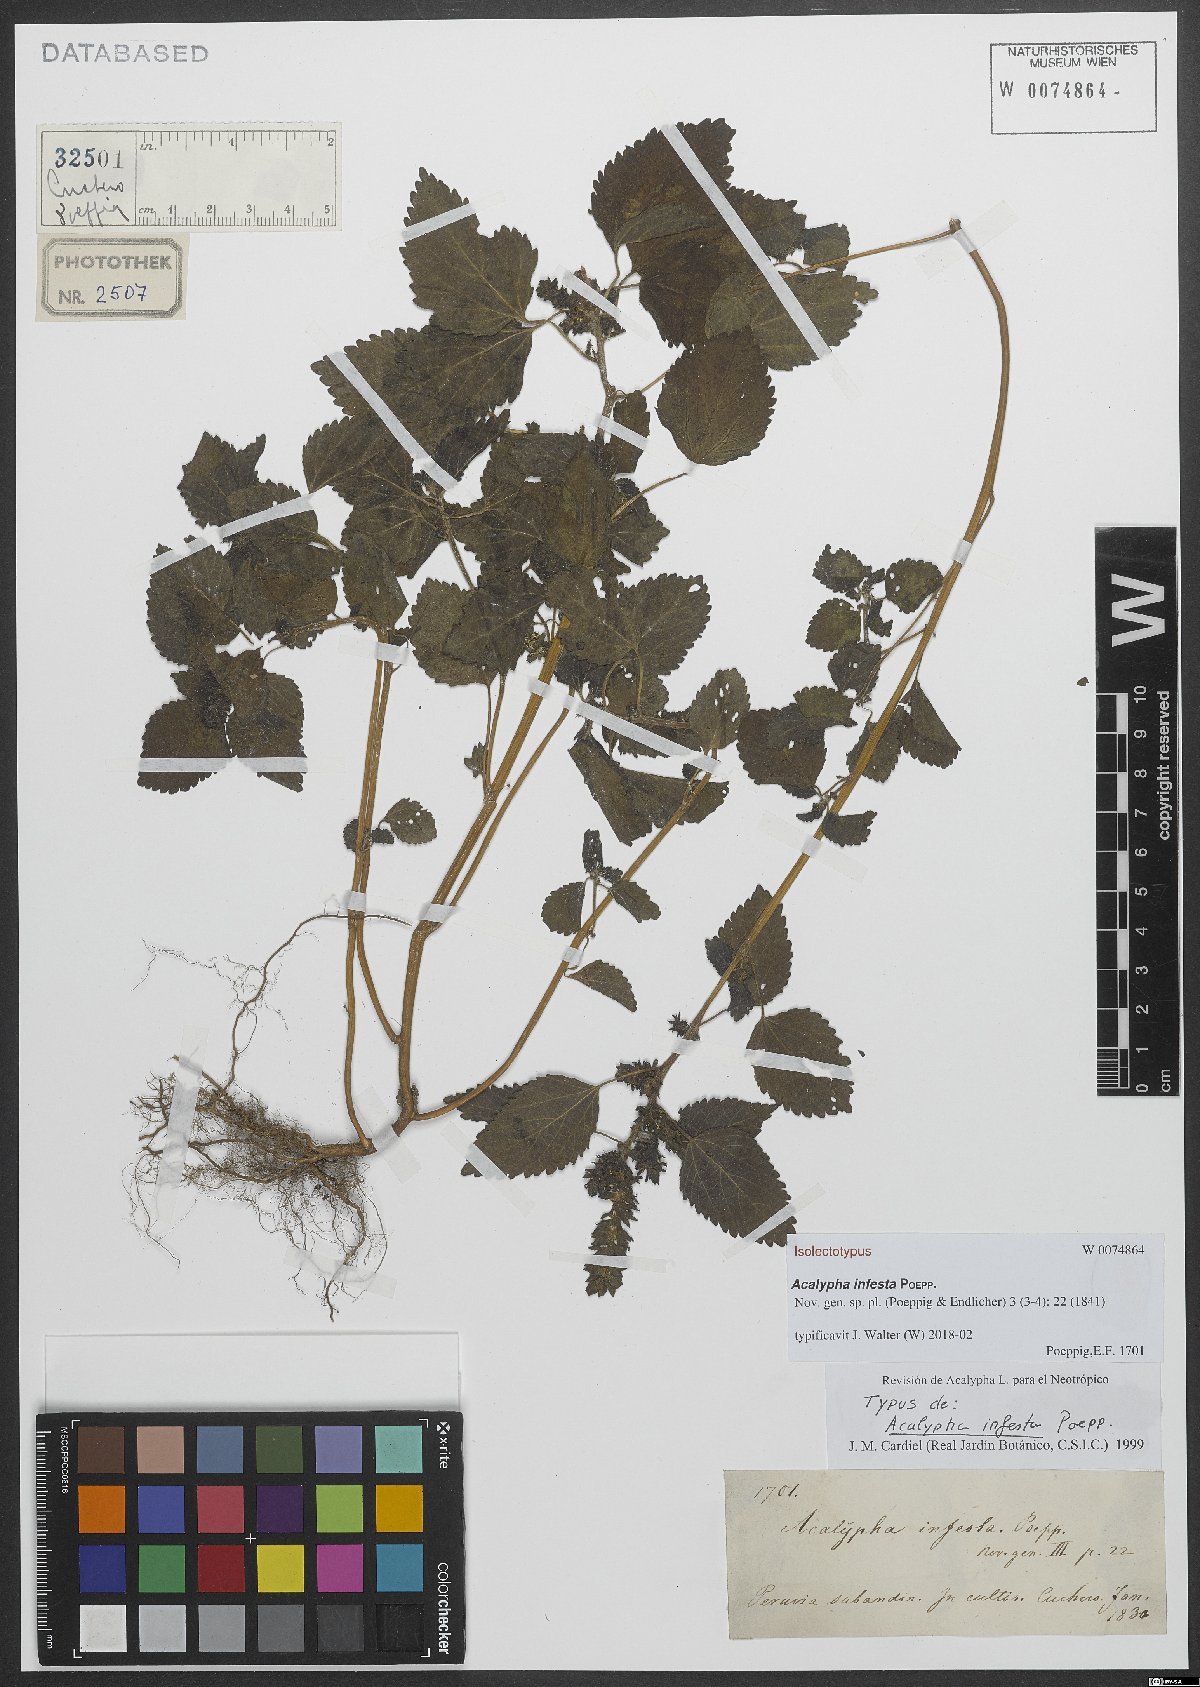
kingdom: Plantae
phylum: Tracheophyta
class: Magnoliopsida
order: Malpighiales
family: Euphorbiaceae
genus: Acalypha
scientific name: Acalypha infesta
